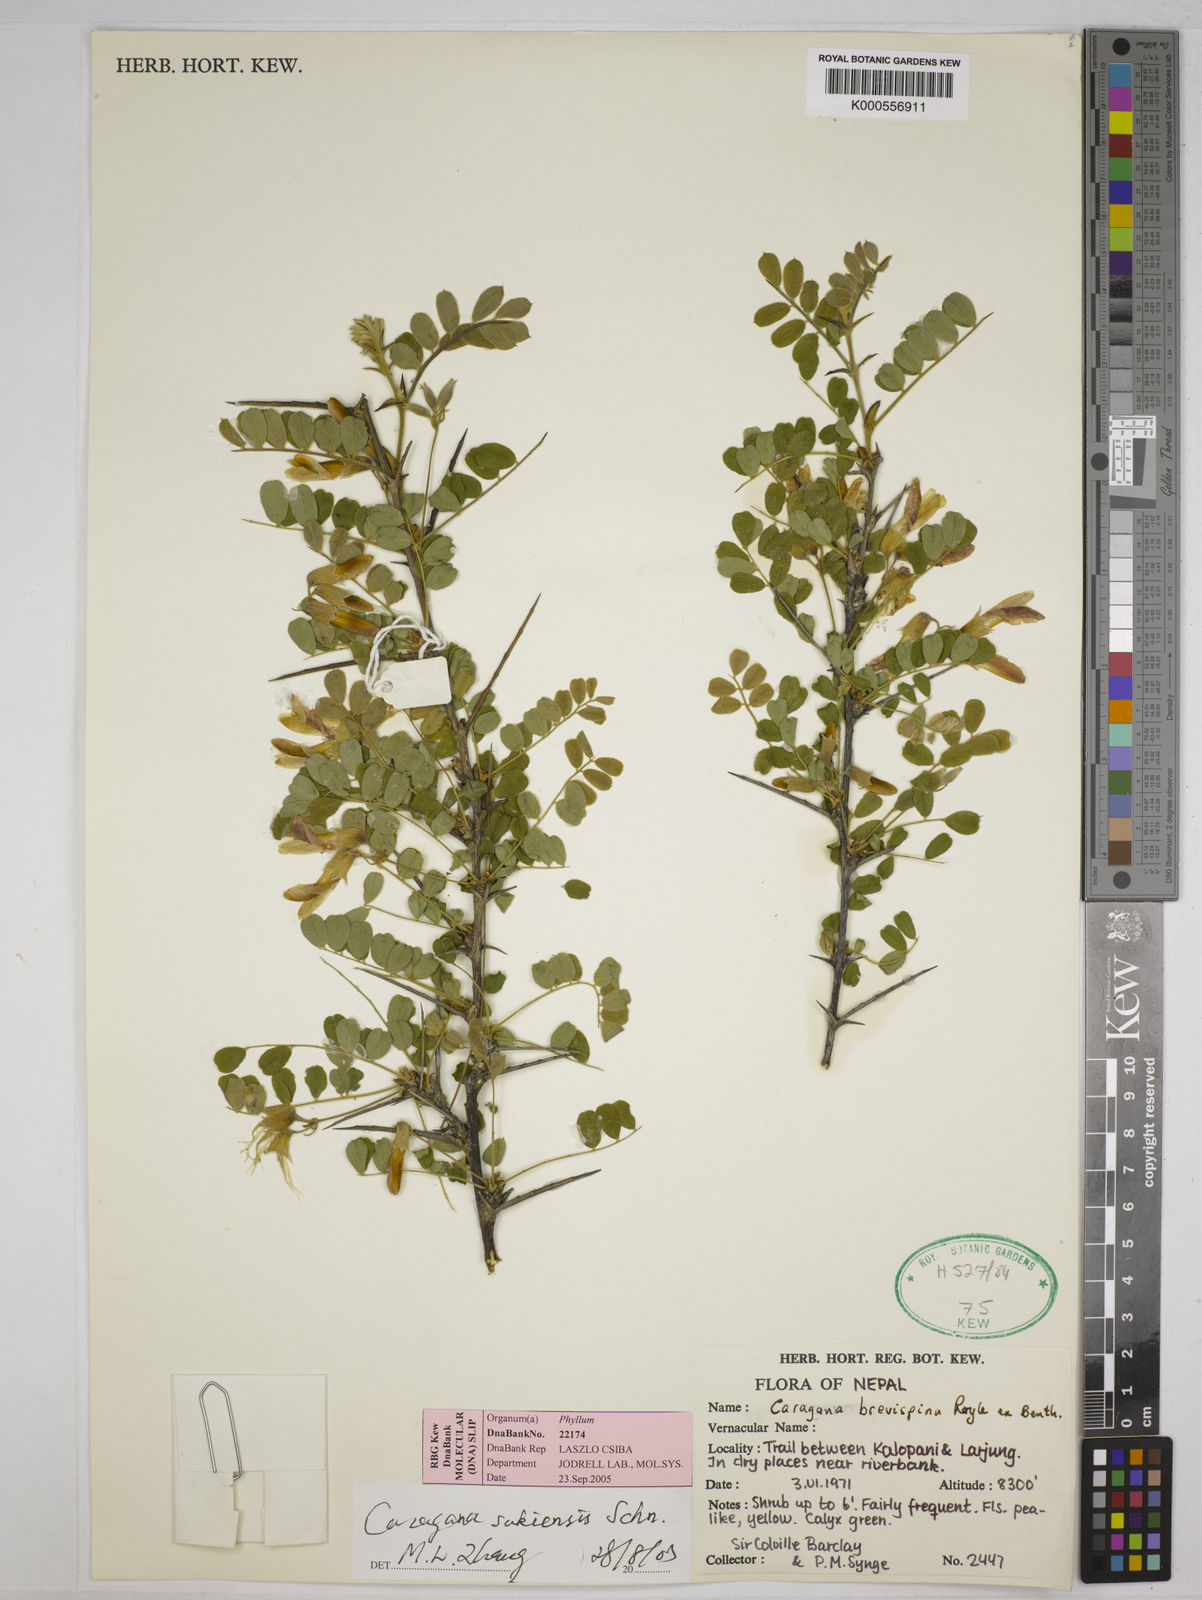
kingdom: Plantae
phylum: Tracheophyta
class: Magnoliopsida
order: Fabales
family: Fabaceae
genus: Caragana
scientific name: Caragana sukiensis
